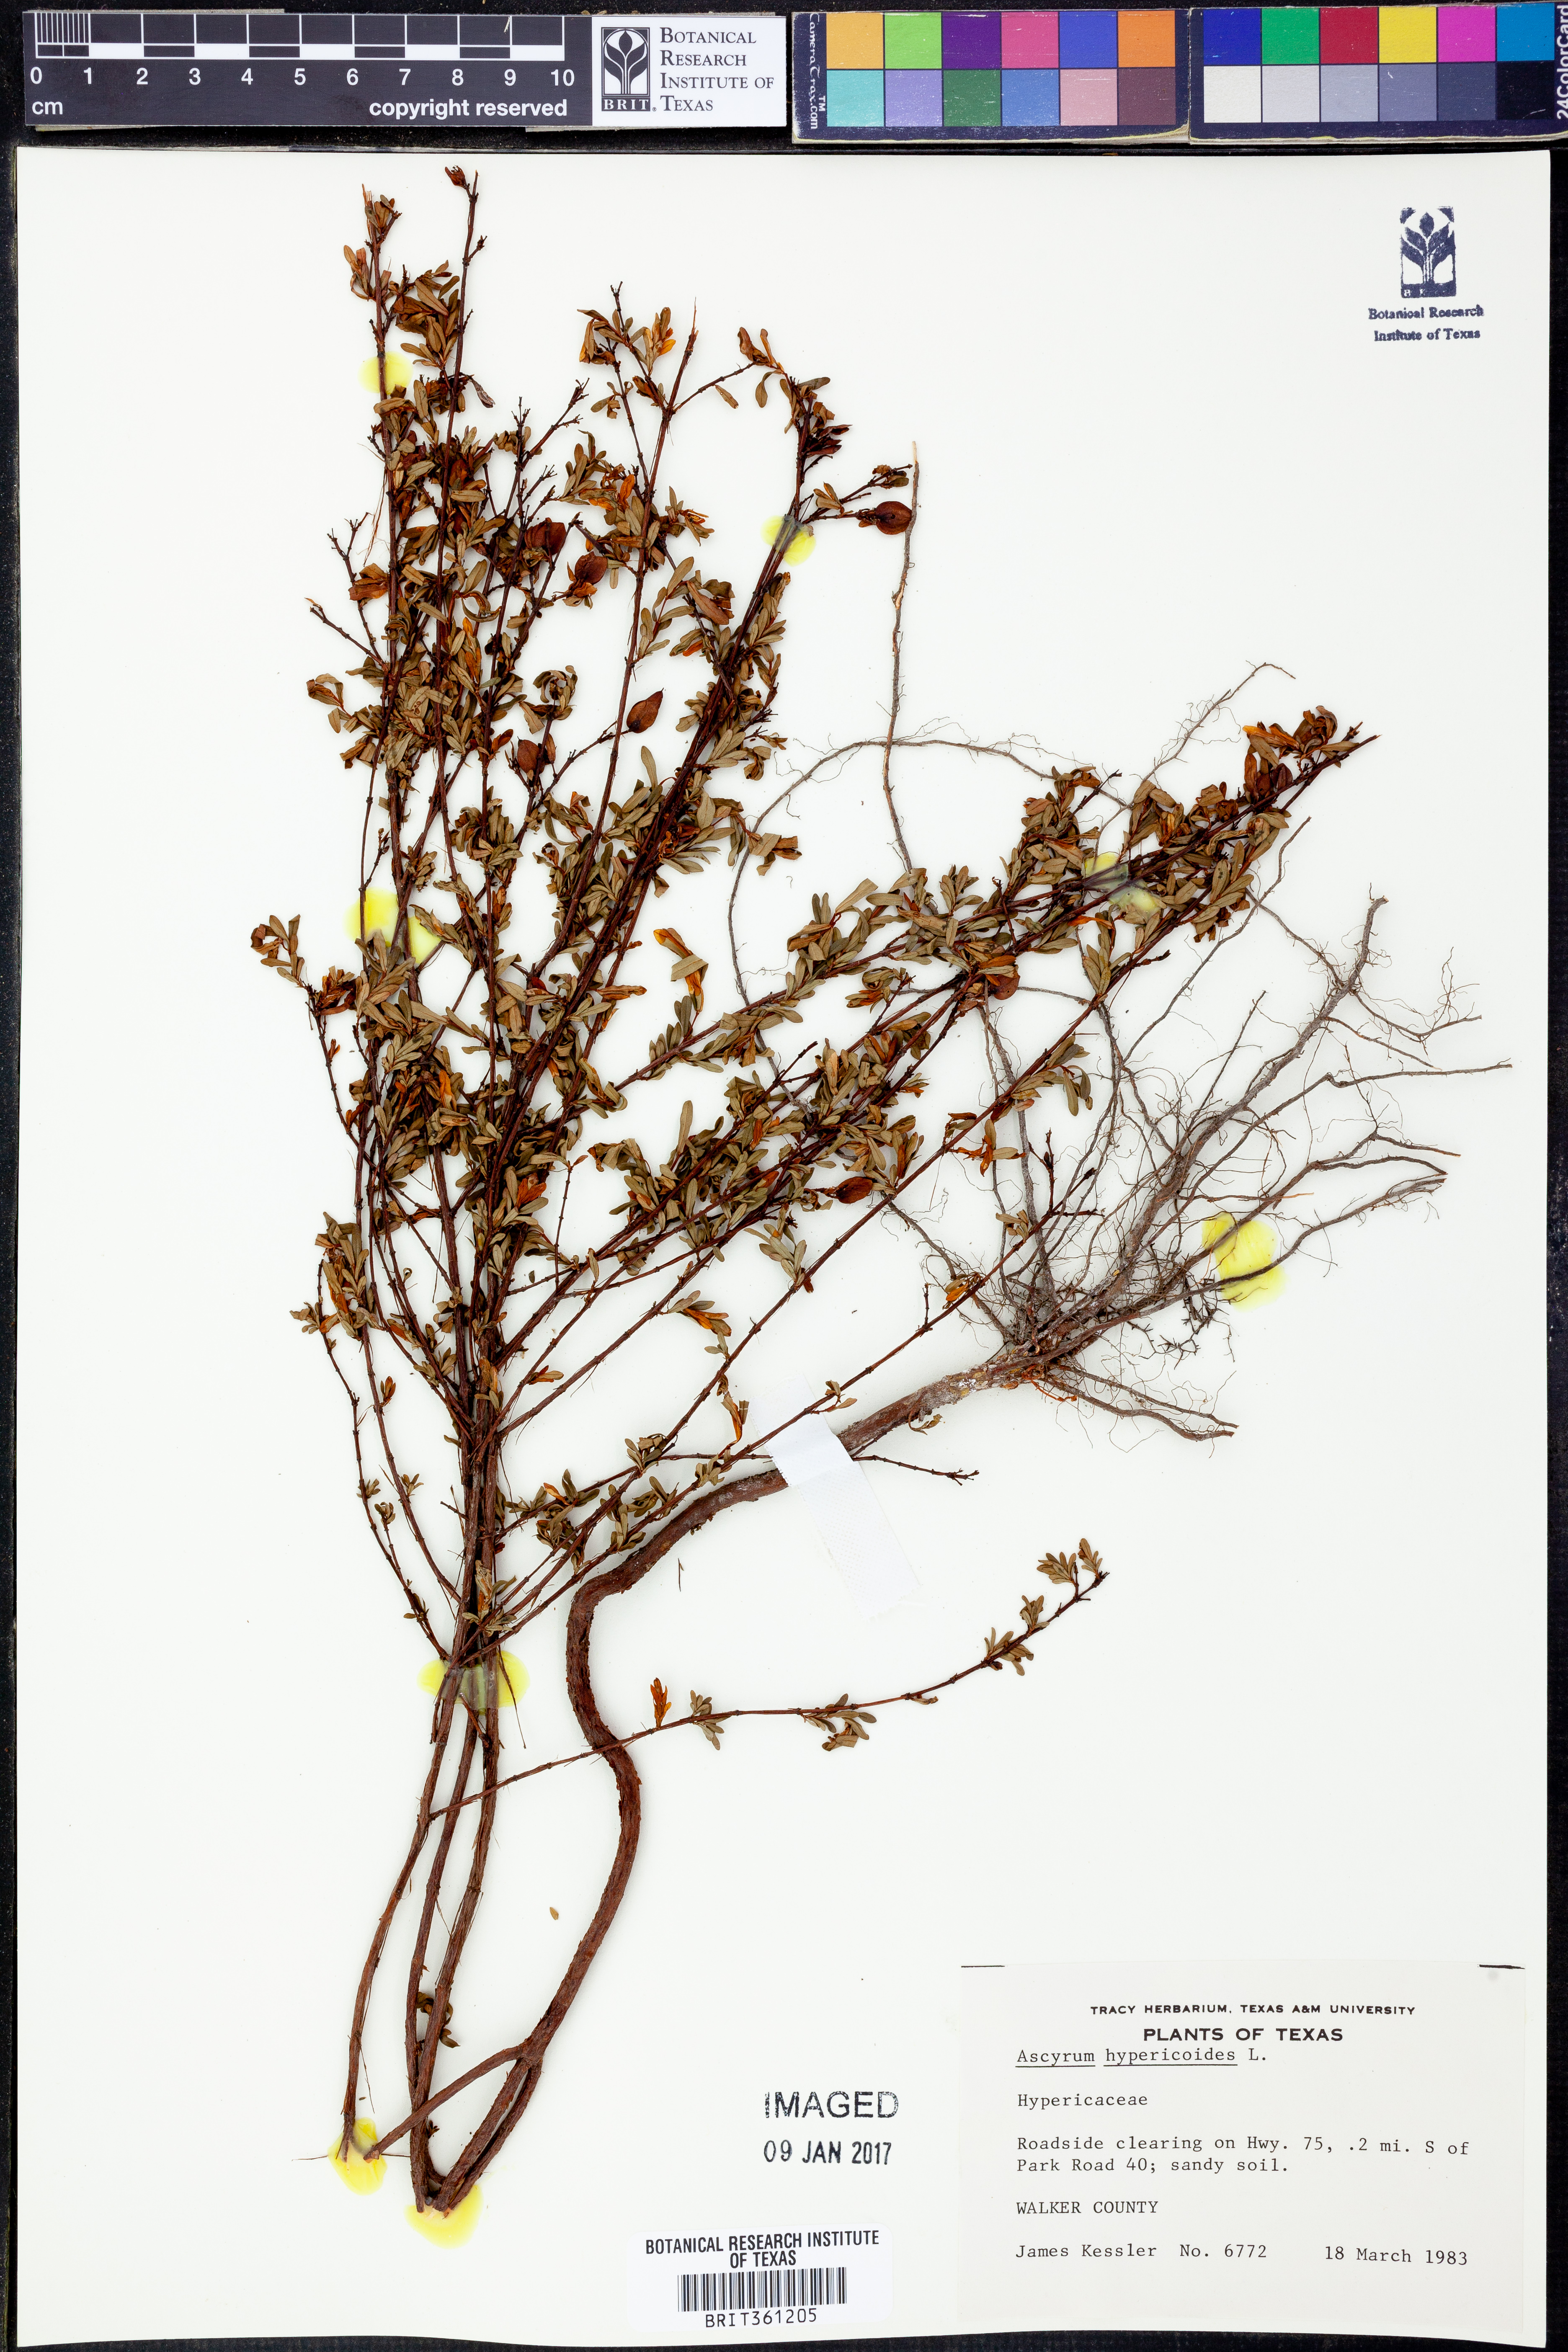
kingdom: Plantae
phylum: Tracheophyta
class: Magnoliopsida
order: Malpighiales
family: Hypericaceae
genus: Hypericum
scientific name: Hypericum hypericoides
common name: St. andrew's cross
